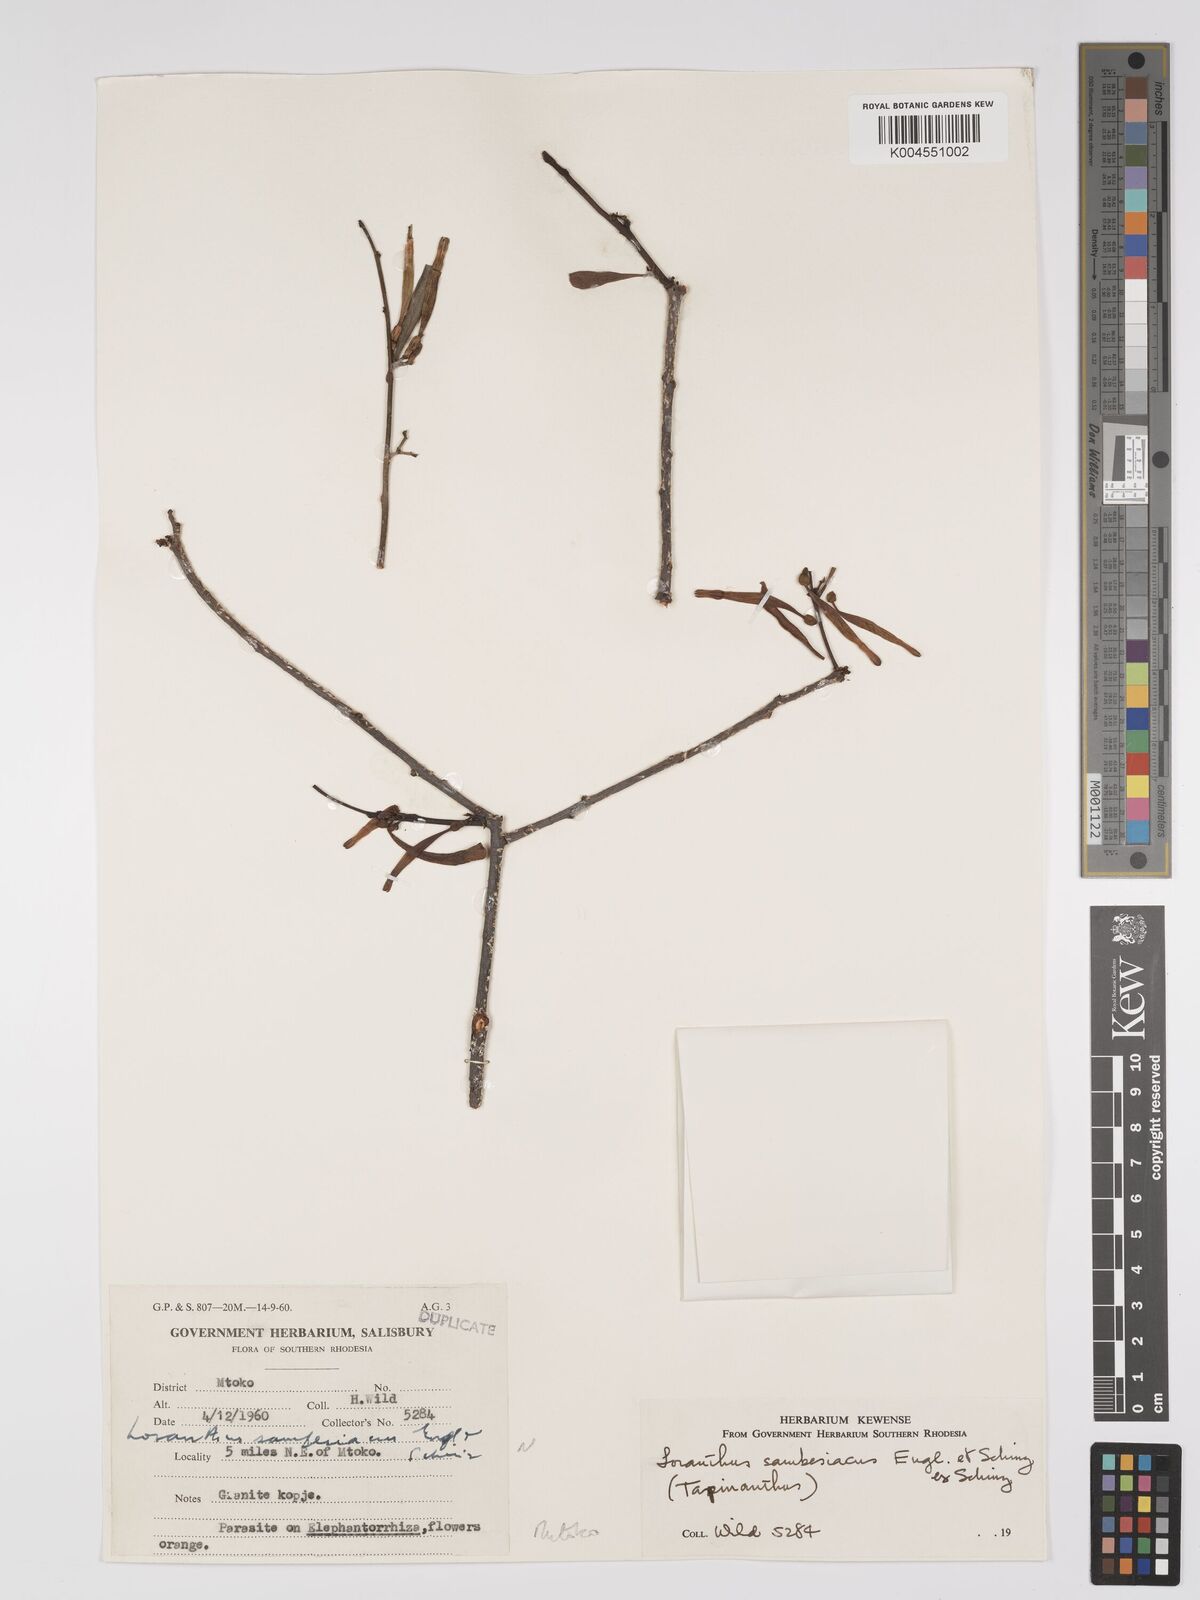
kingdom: Plantae
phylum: Tracheophyta
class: Magnoliopsida
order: Santalales
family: Loranthaceae
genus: Agelanthus
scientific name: Agelanthus sambesiacus
